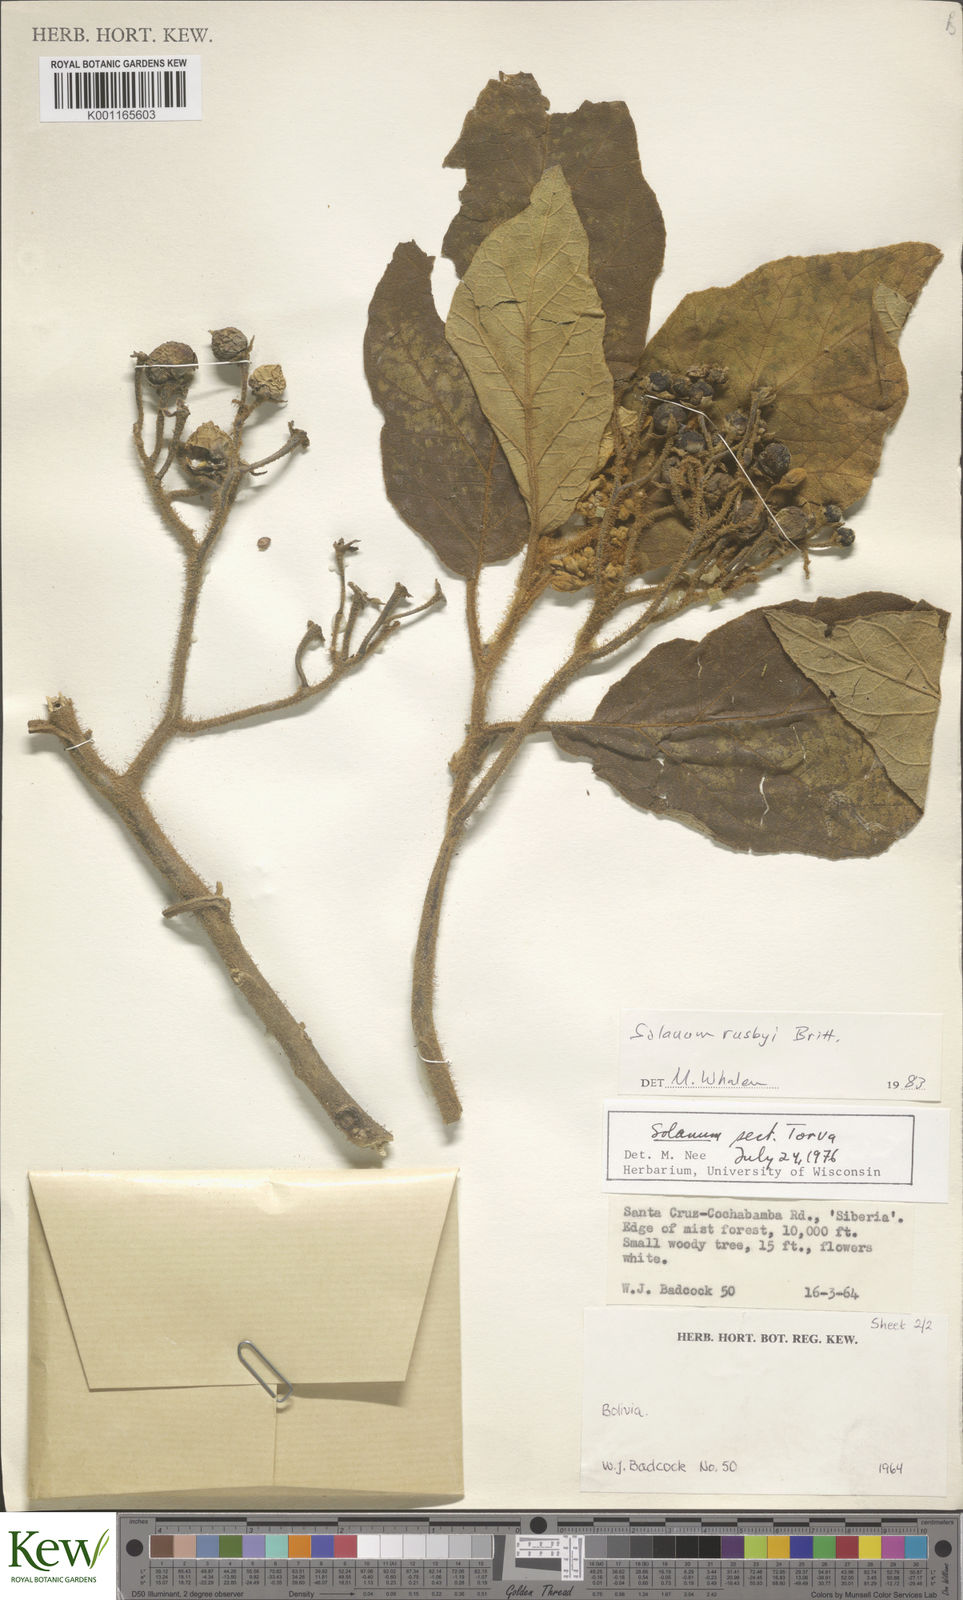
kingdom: Plantae
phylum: Tracheophyta
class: Magnoliopsida
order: Solanales
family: Solanaceae
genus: Solanum
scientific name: Solanum asperolanatum
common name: Devil's-fig
